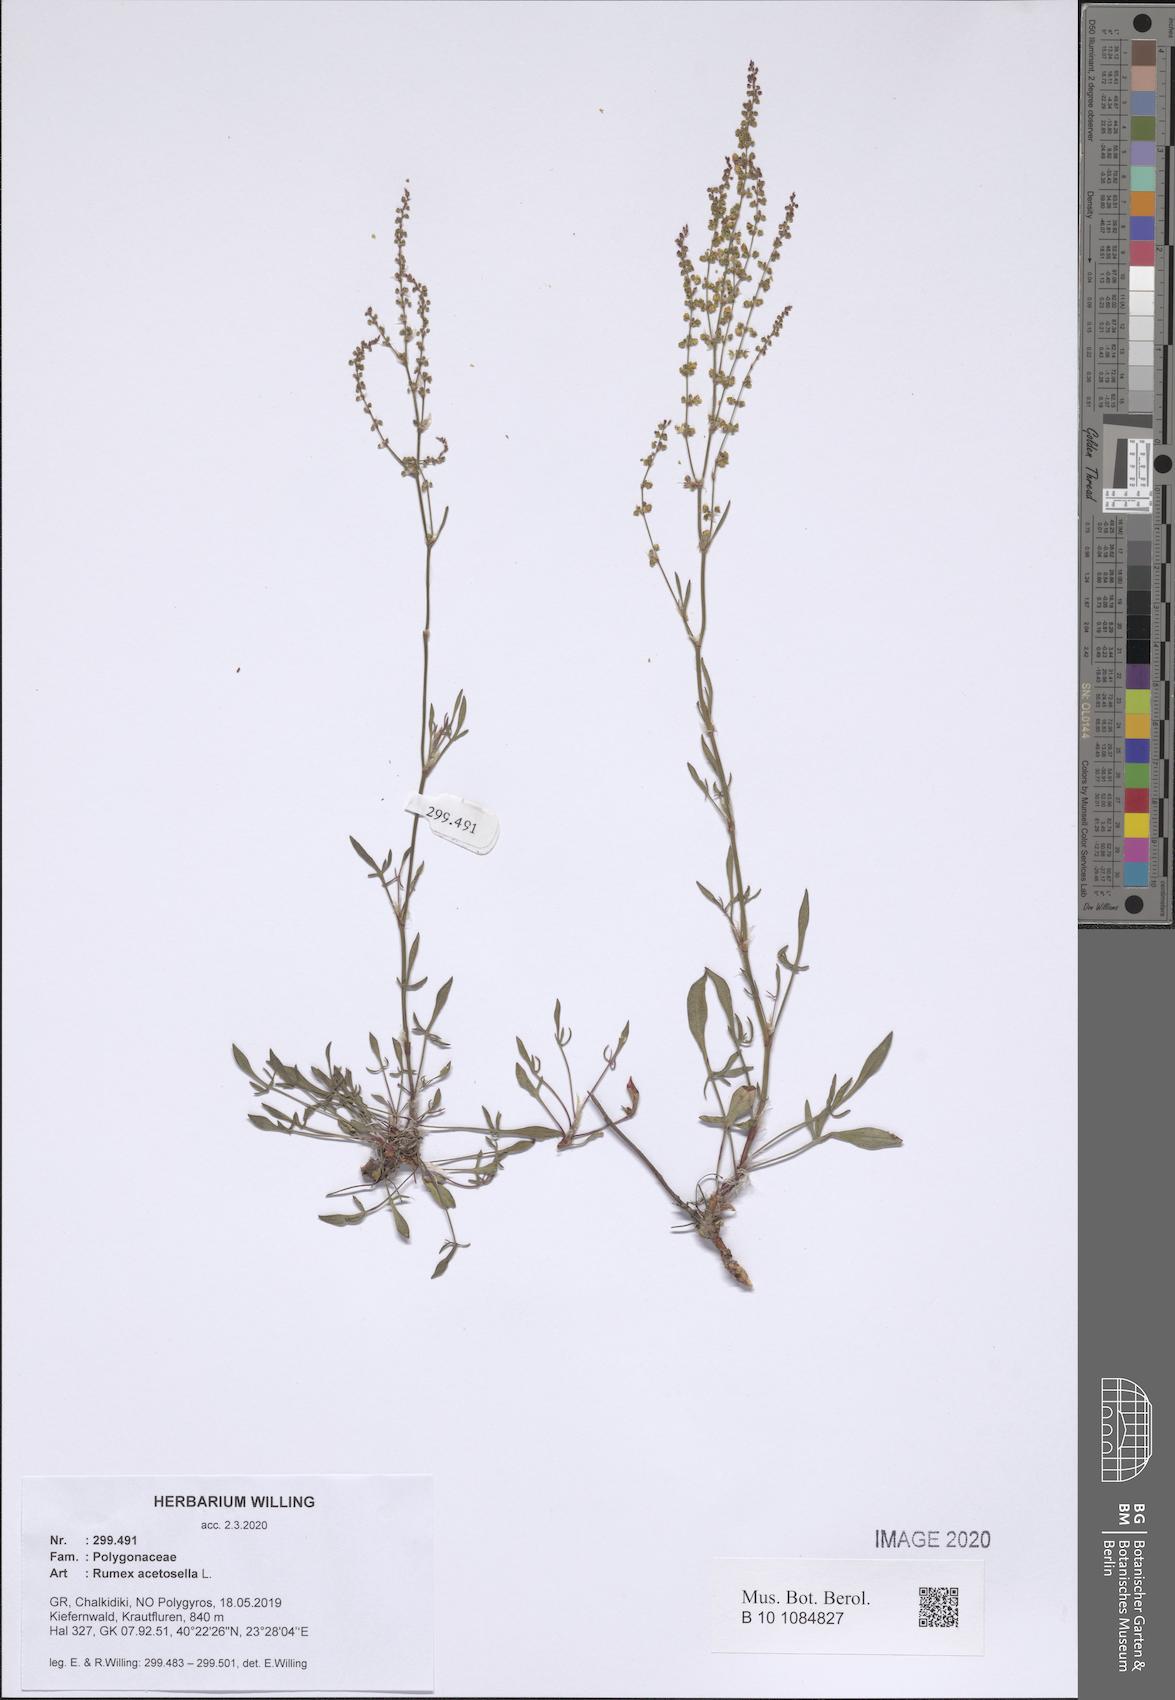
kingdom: Plantae
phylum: Tracheophyta
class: Magnoliopsida
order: Caryophyllales
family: Polygonaceae
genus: Rumex
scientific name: Rumex acetosella
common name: Common sheep sorrel
